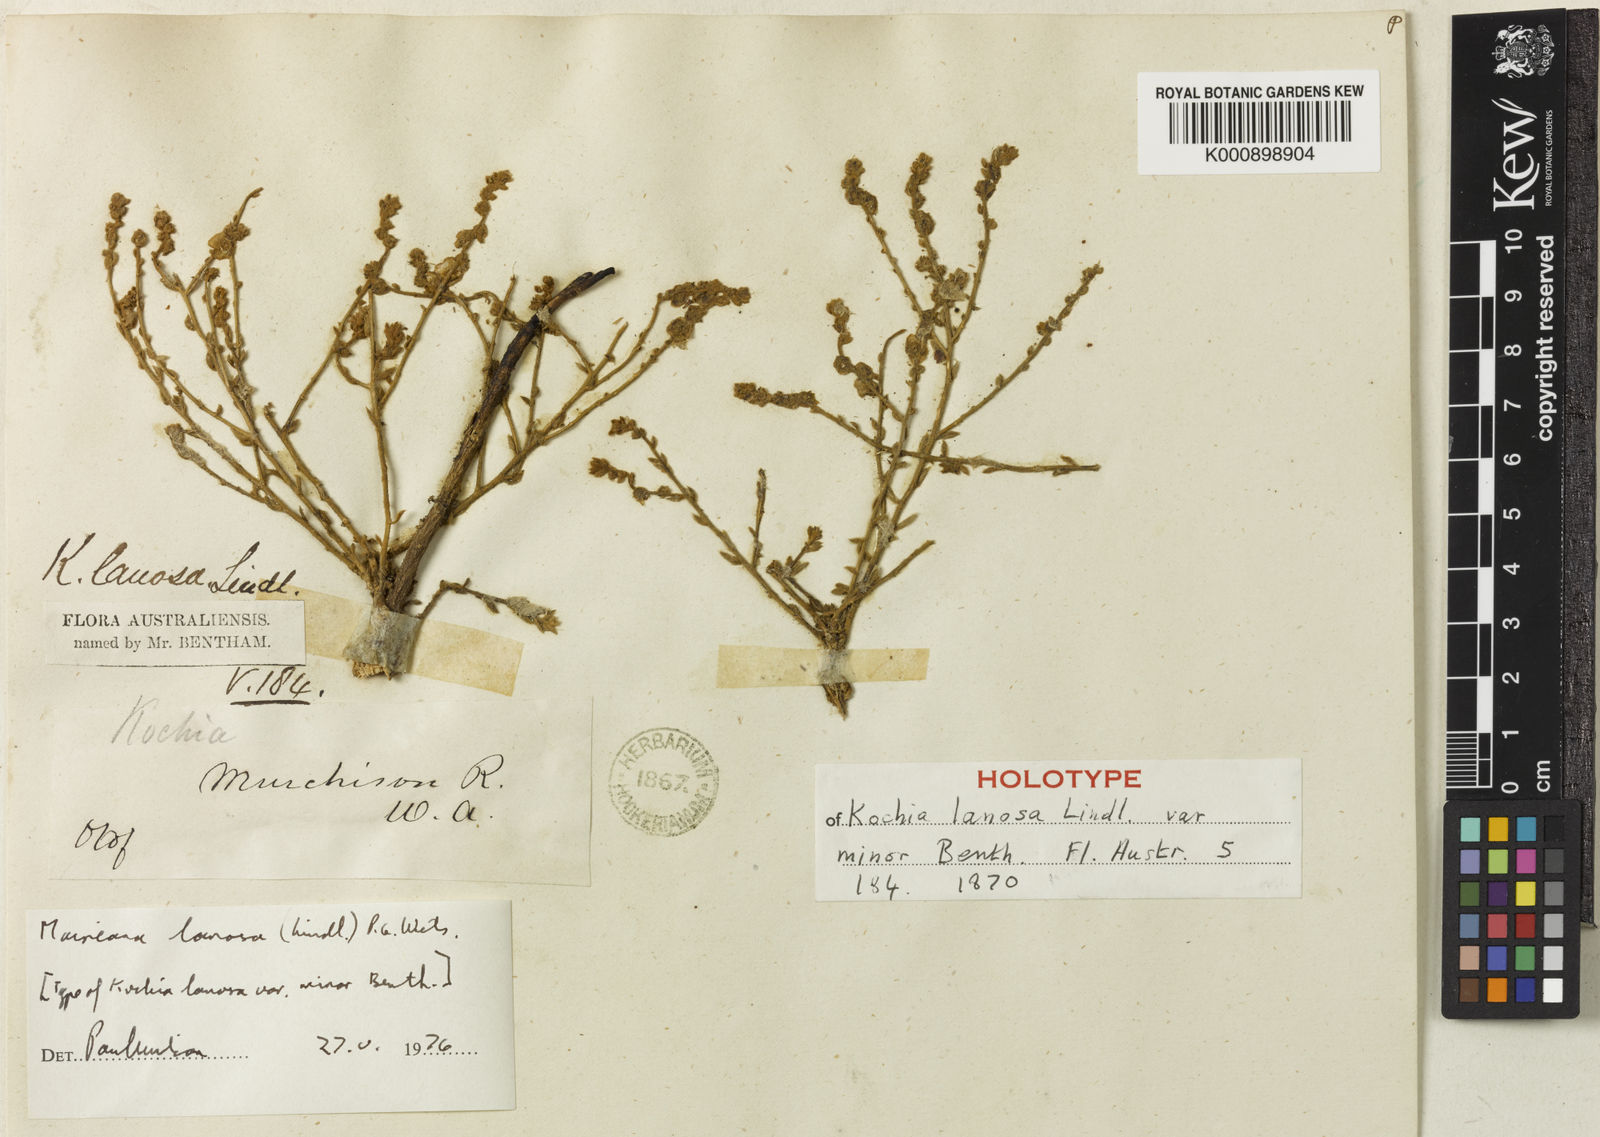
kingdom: Plantae
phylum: Tracheophyta
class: Magnoliopsida
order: Caryophyllales
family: Amaranthaceae
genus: Maireana
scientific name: Maireana lanosa
